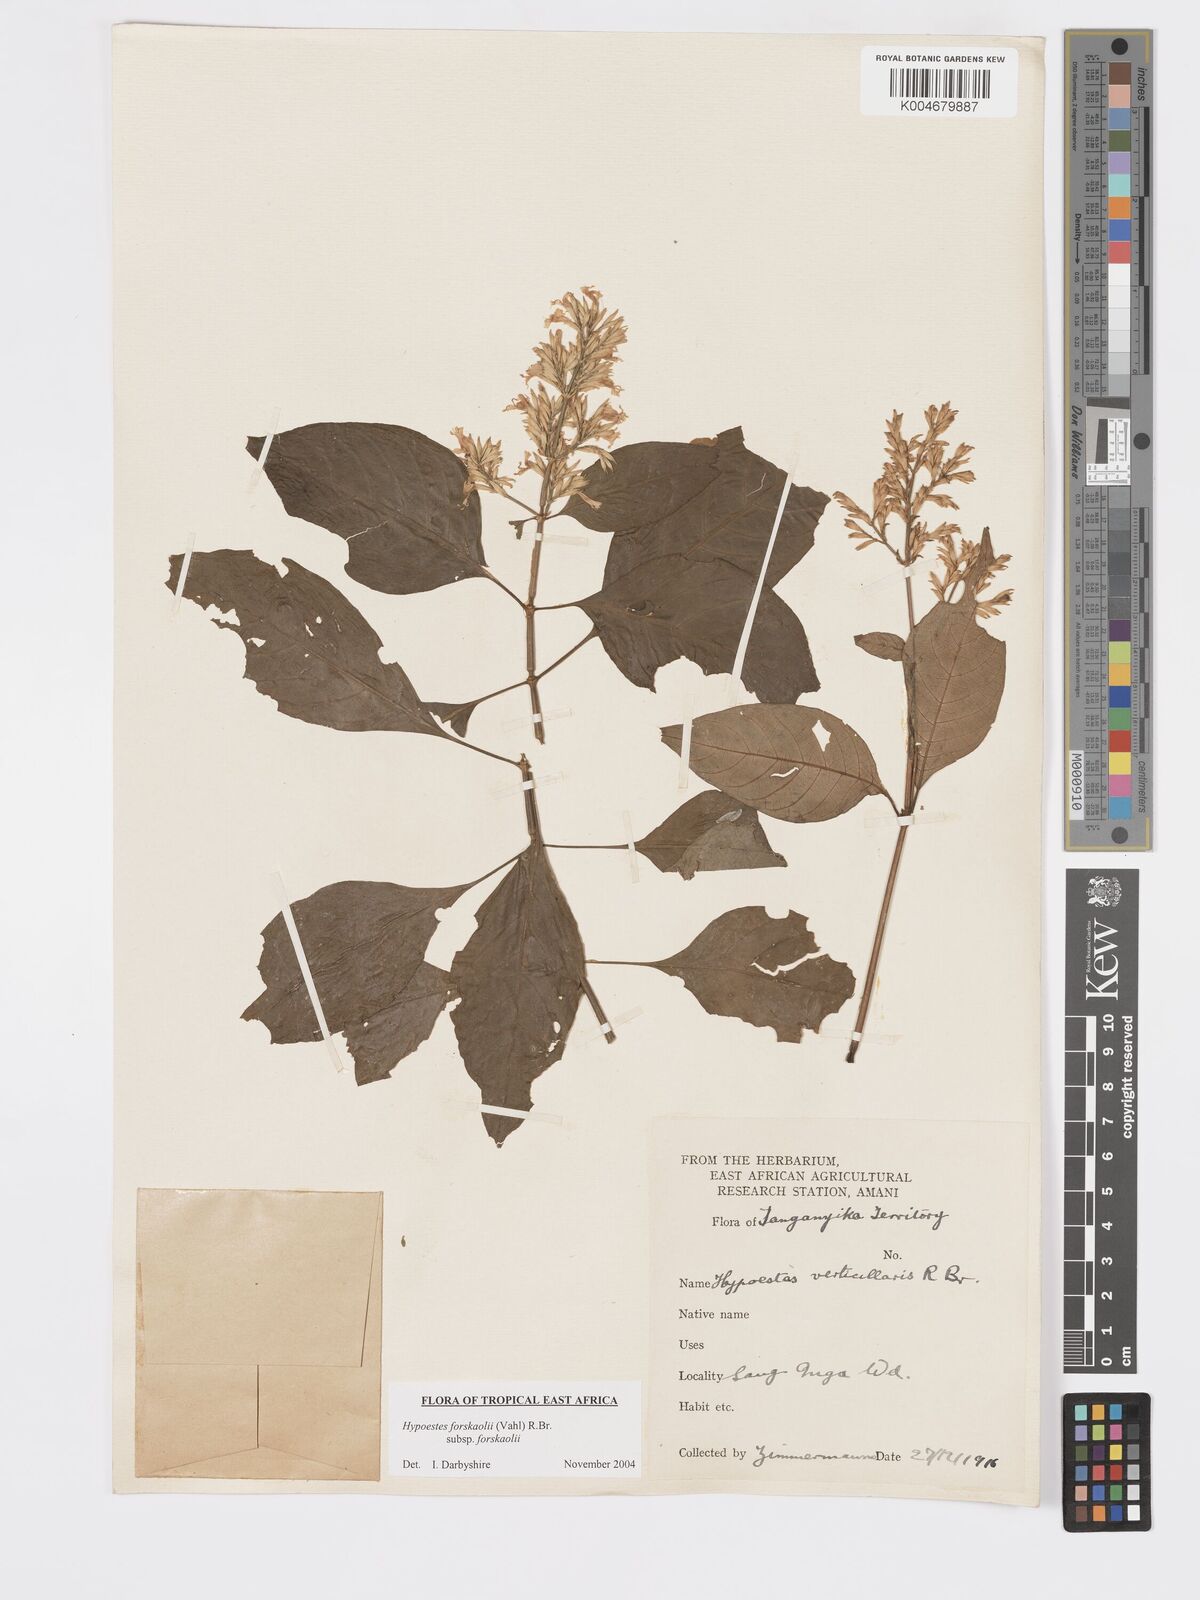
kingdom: Plantae
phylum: Tracheophyta
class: Magnoliopsida
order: Lamiales
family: Acanthaceae
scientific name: Acanthaceae
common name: Acanthaceae
